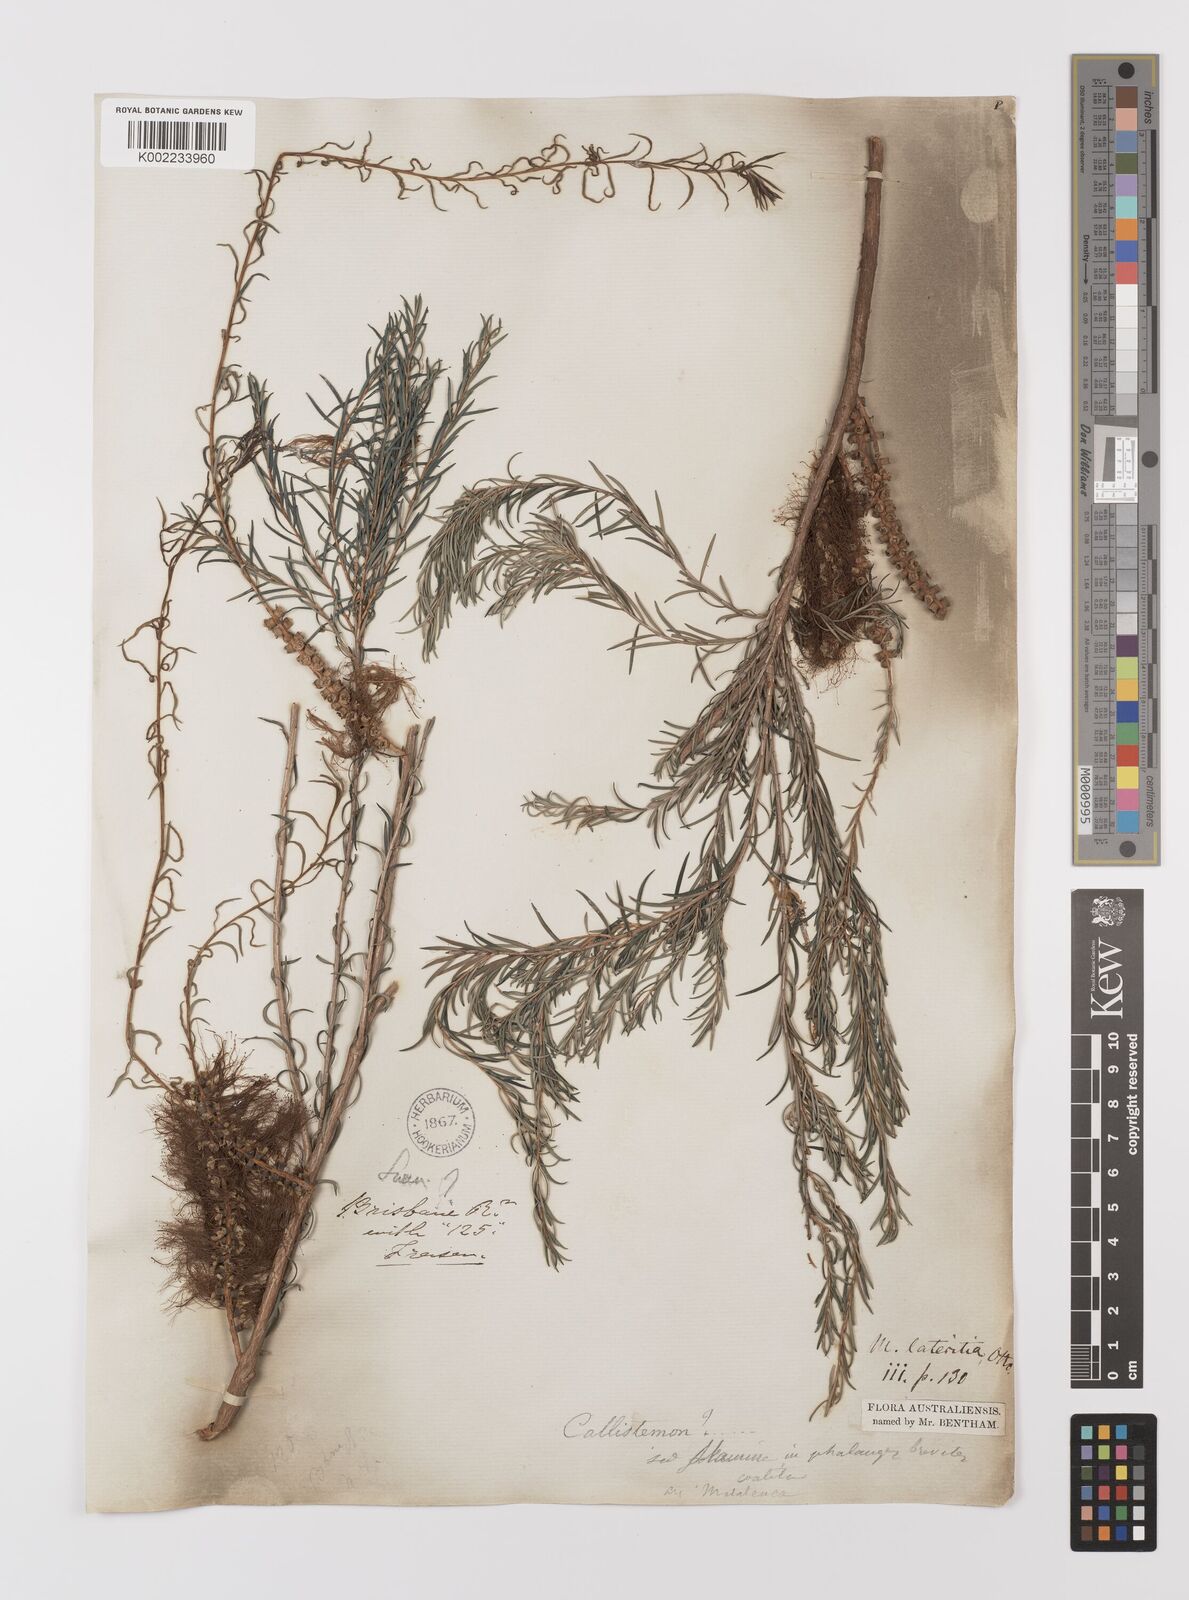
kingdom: Plantae
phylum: Tracheophyta
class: Magnoliopsida
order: Myrtales
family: Myrtaceae
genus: Melaleuca
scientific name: Melaleuca lateritia
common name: Robin red-breast
